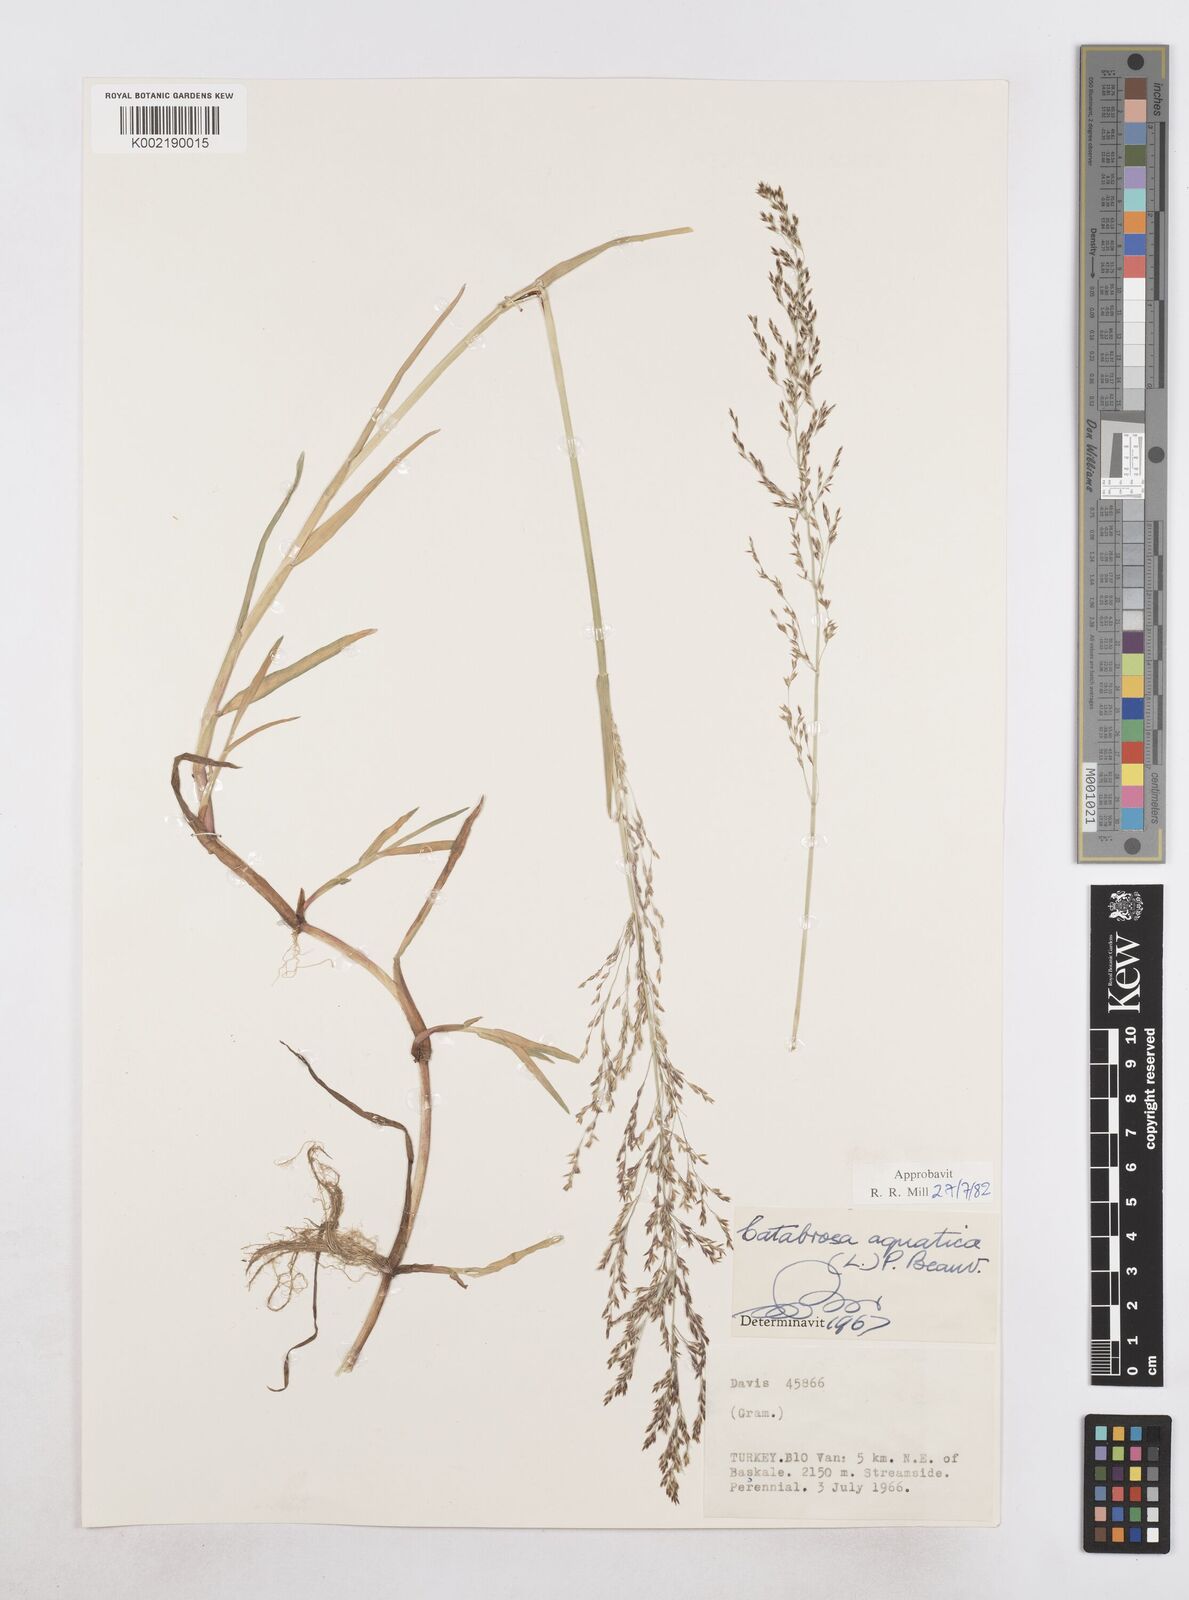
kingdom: Plantae
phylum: Tracheophyta
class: Liliopsida
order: Poales
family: Poaceae
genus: Catabrosa
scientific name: Catabrosa aquatica
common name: Whorl-grass
